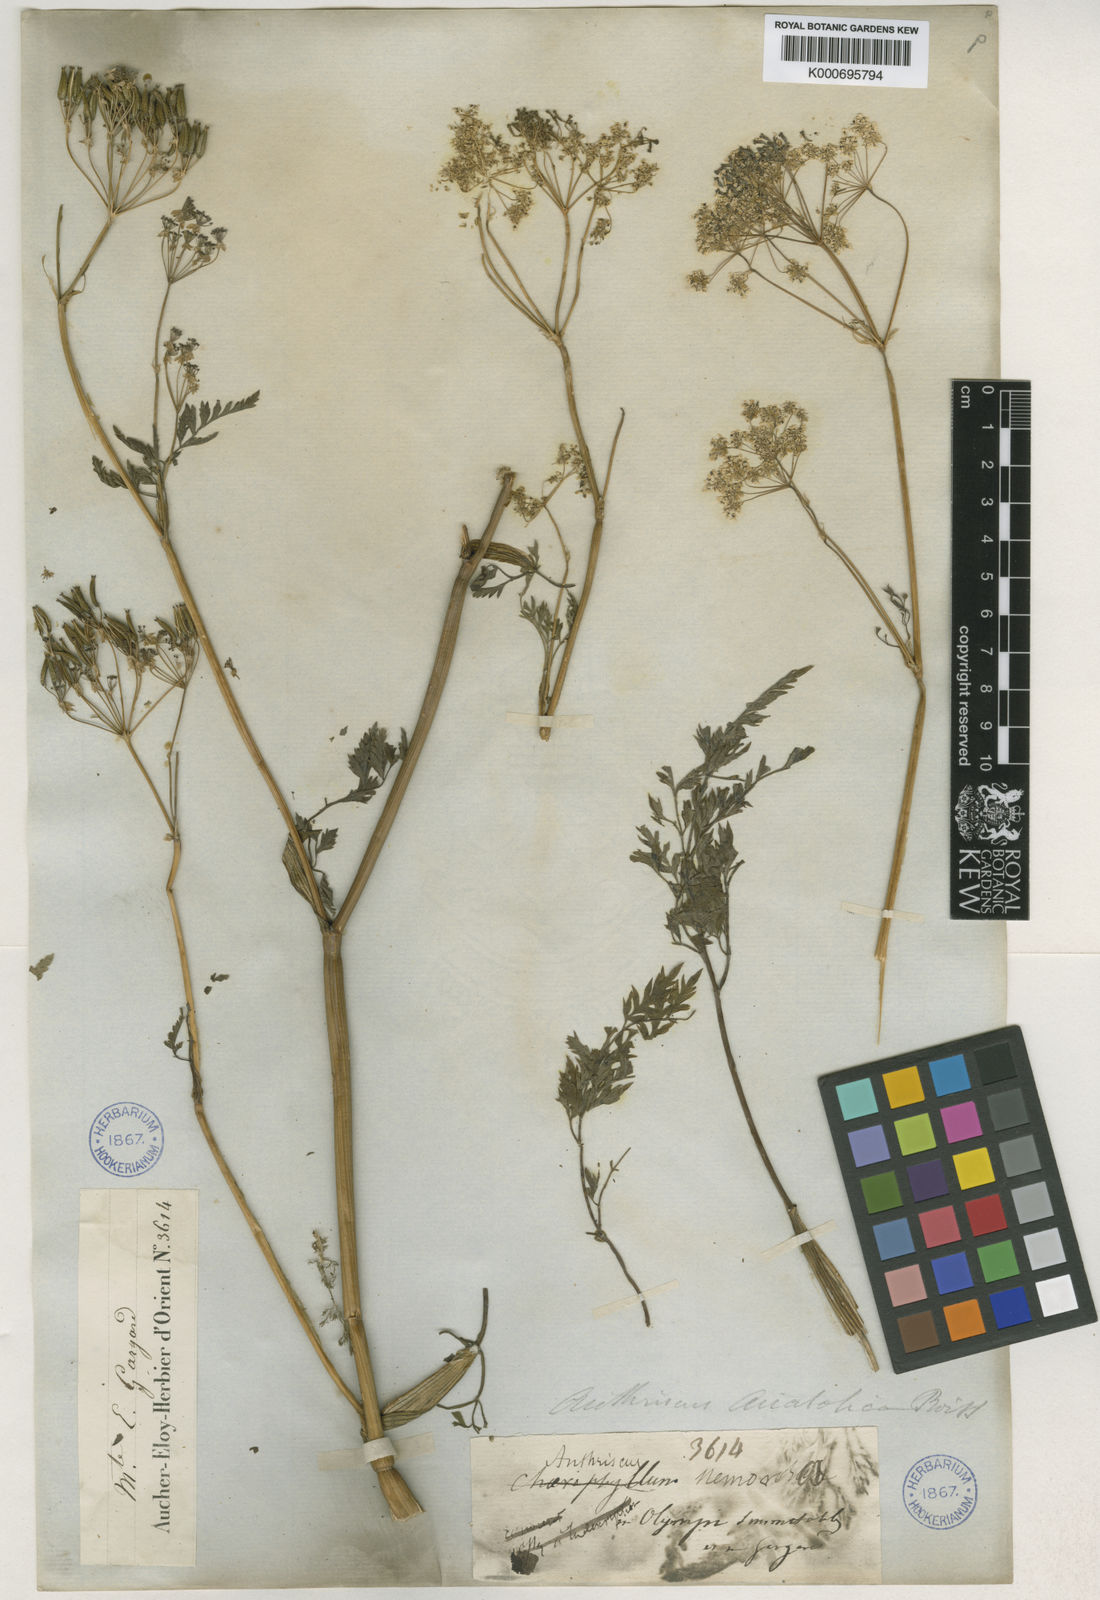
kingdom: Plantae
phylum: Tracheophyta
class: Magnoliopsida
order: Apiales
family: Apiaceae
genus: Anthriscus
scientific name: Anthriscus sylvestris
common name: Cow parsley
